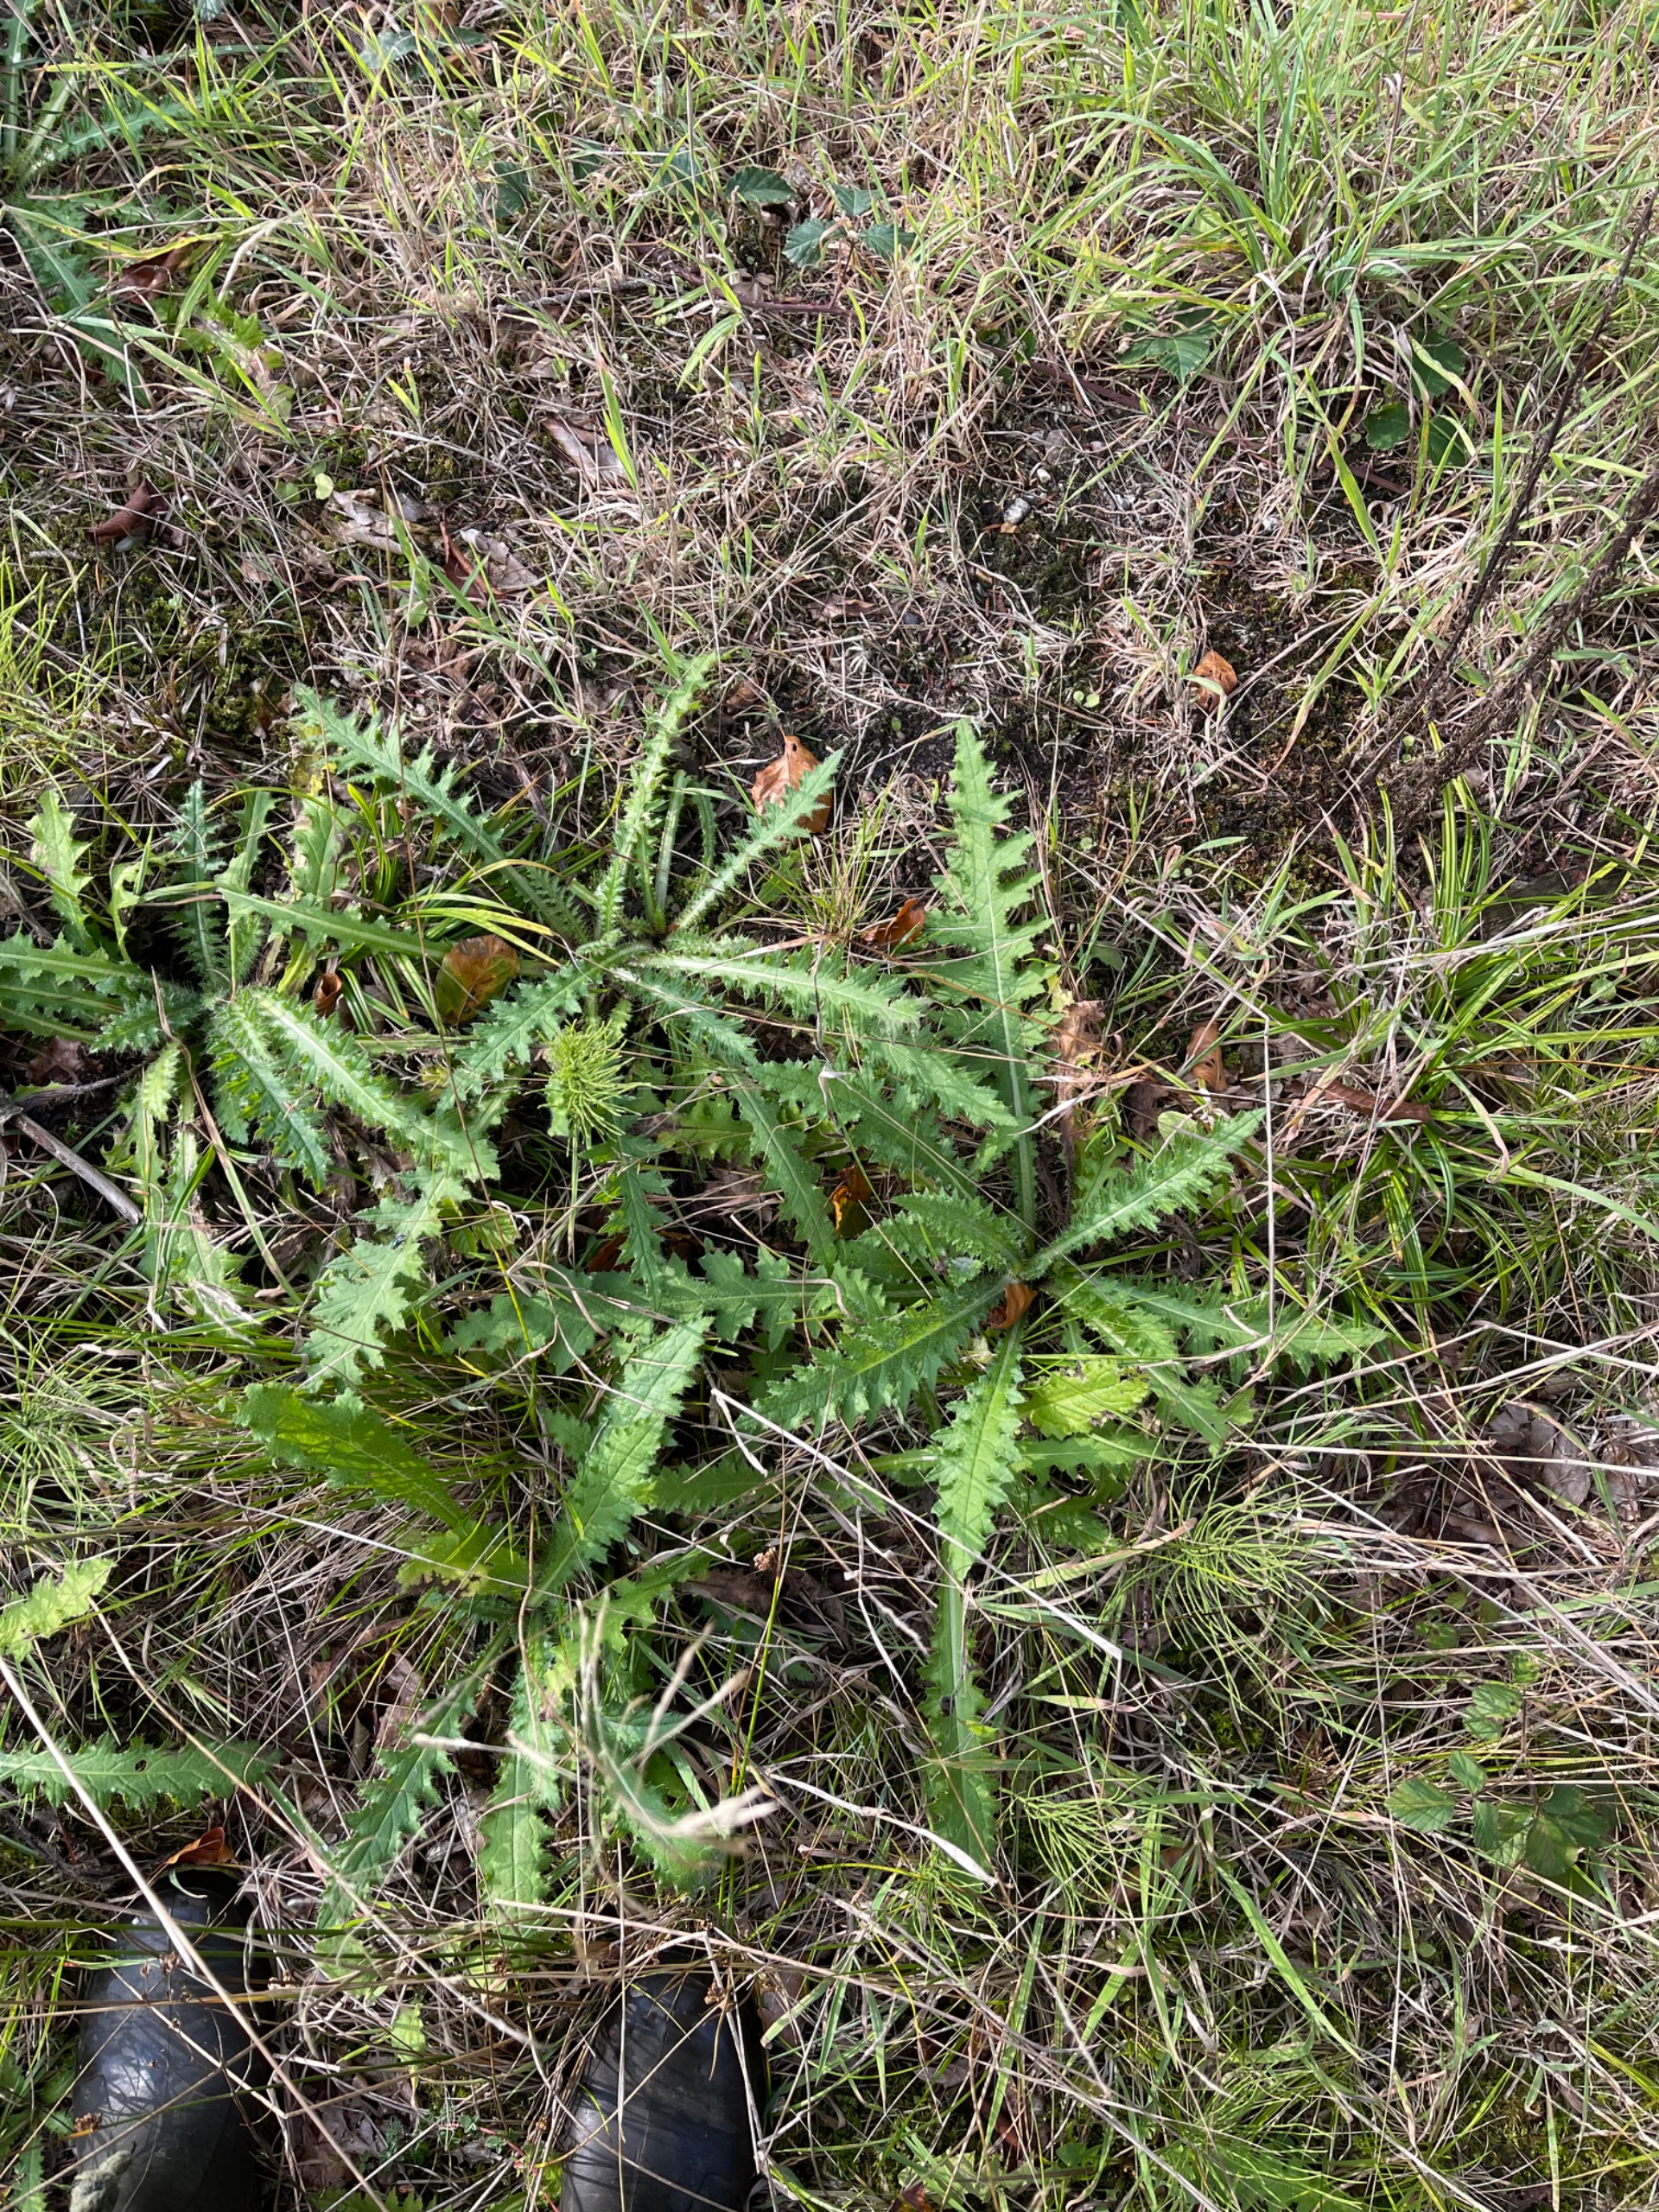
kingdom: Plantae
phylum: Tracheophyta
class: Magnoliopsida
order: Asterales
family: Asteraceae
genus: Cirsium
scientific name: Cirsium palustre
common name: Kær-tidsel
